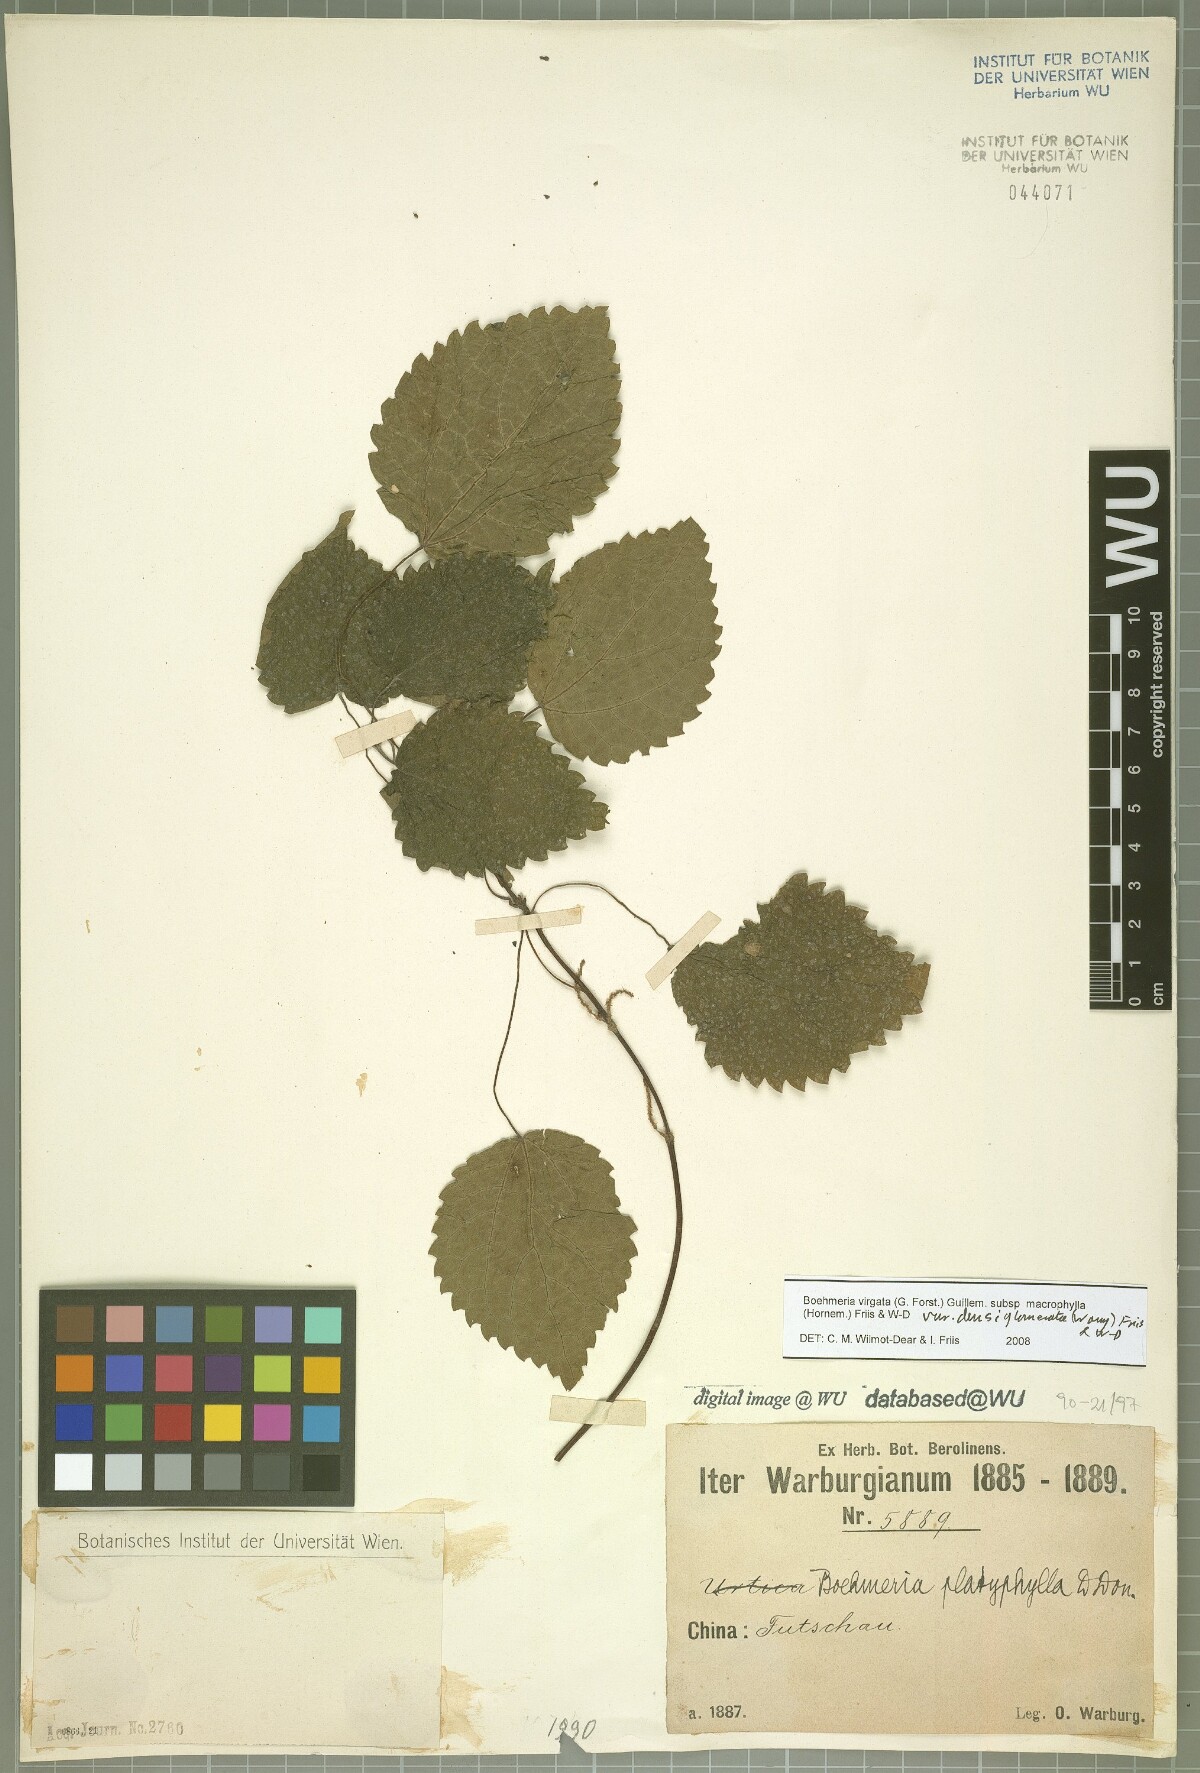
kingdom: Plantae
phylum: Tracheophyta
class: Magnoliopsida
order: Rosales
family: Urticaceae
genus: Boehmeria
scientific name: Boehmeria virgata
